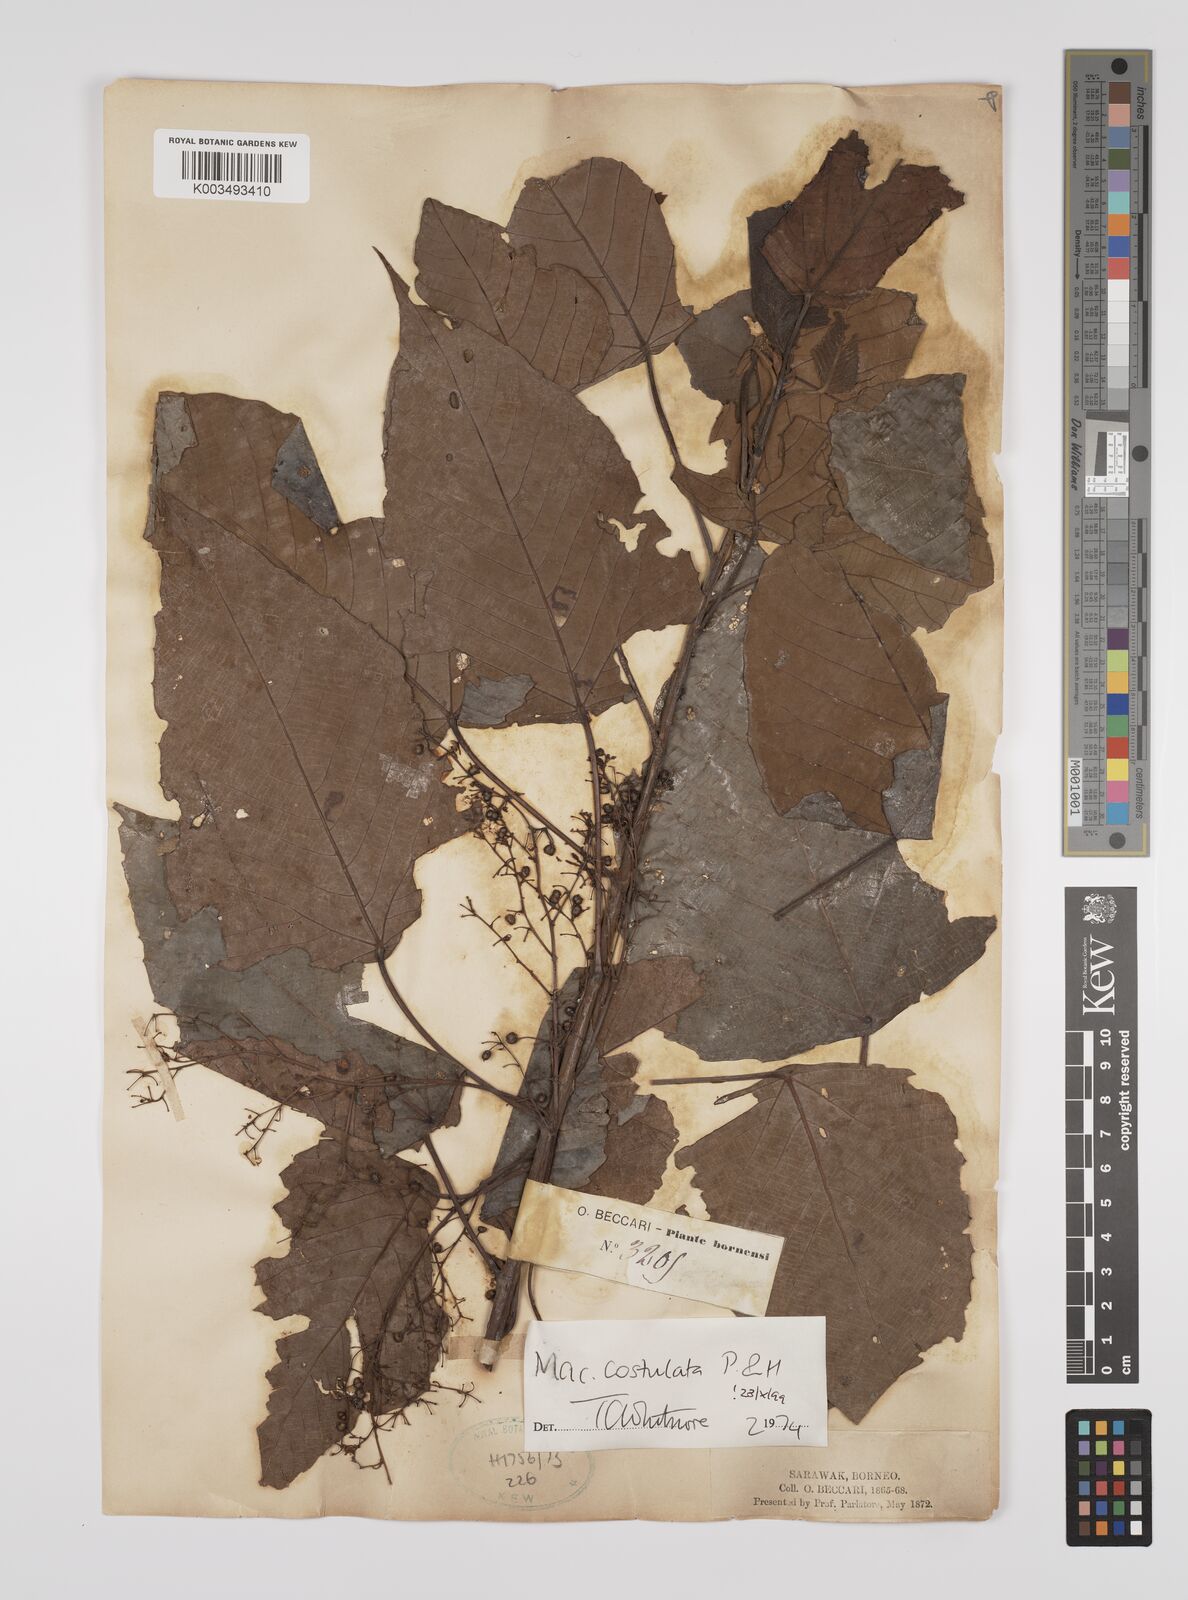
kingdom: Plantae
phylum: Tracheophyta
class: Magnoliopsida
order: Malpighiales
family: Euphorbiaceae
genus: Macaranga
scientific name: Macaranga costulata
